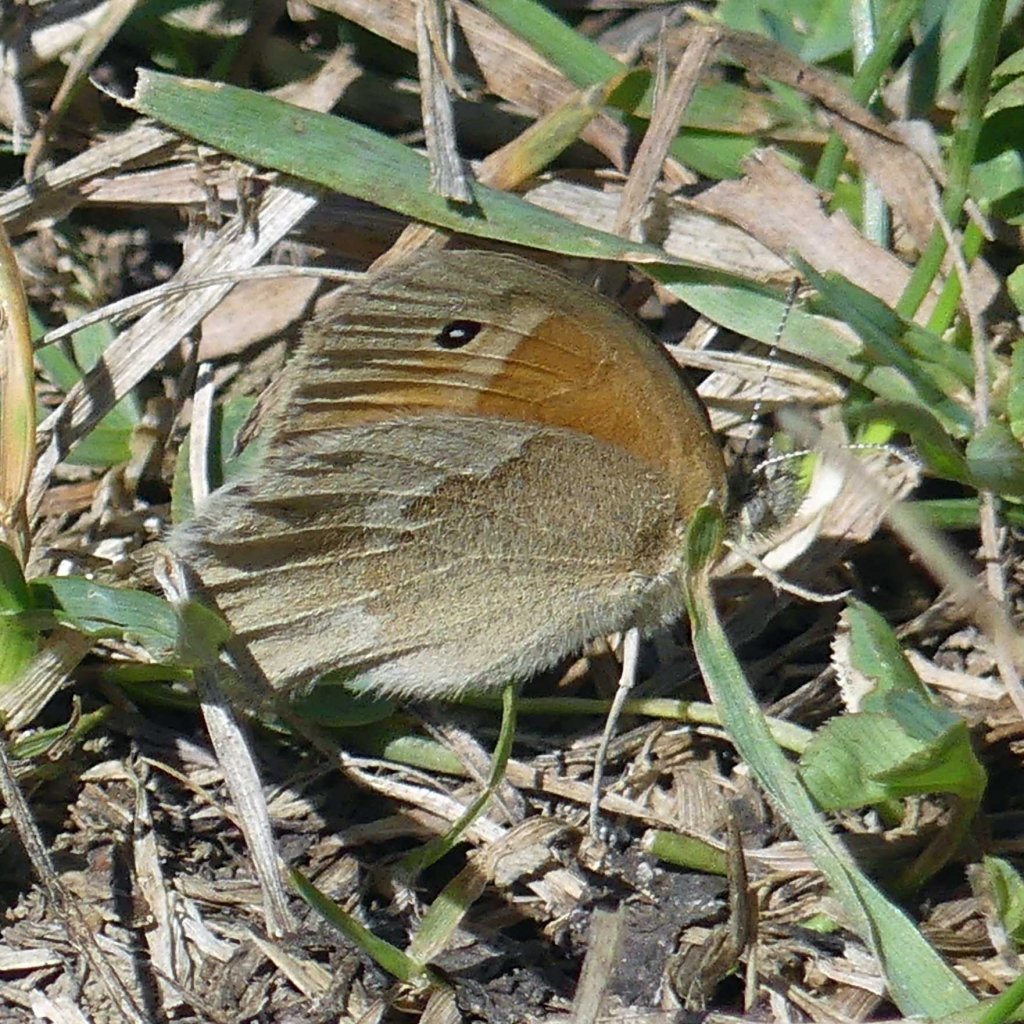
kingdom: Animalia
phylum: Arthropoda
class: Insecta
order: Lepidoptera
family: Nymphalidae
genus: Coenonympha
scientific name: Coenonympha tullia
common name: Large Heath
